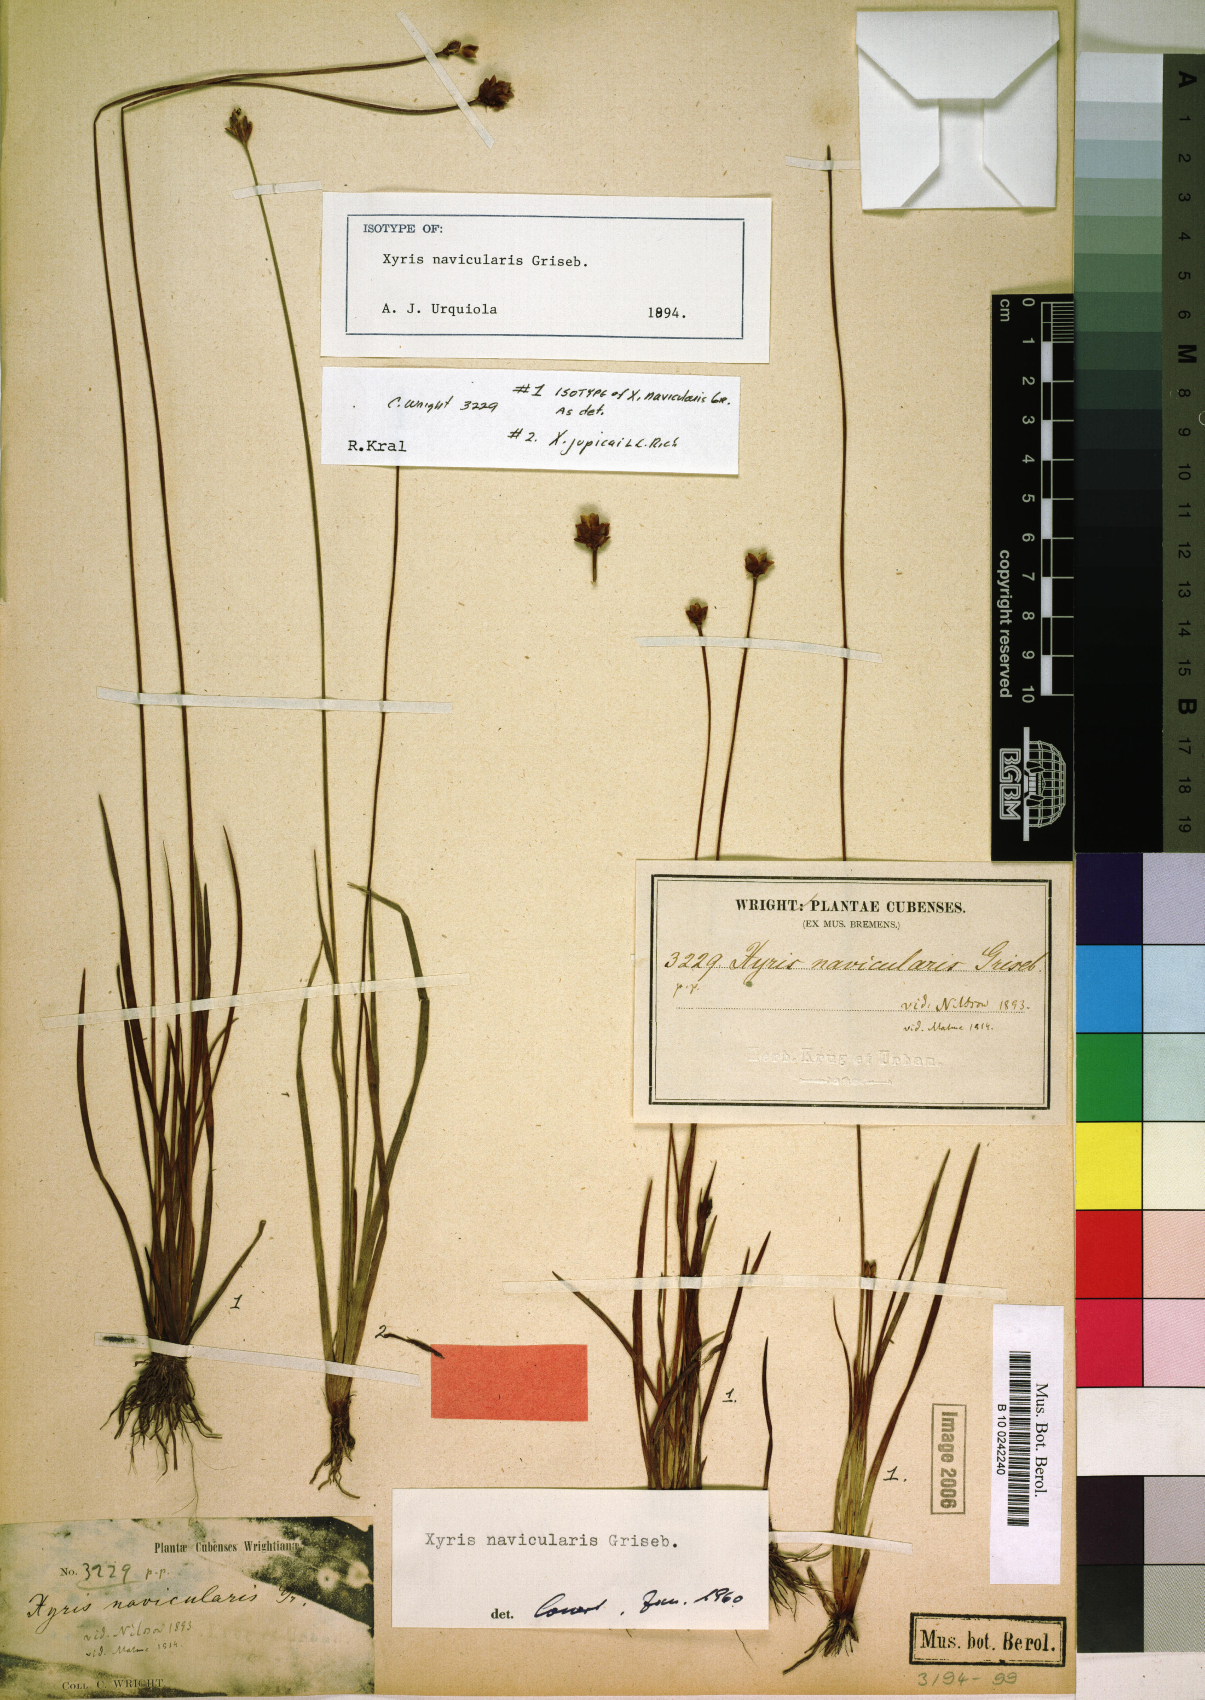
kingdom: Plantae
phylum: Tracheophyta
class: Liliopsida
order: Poales
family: Xyridaceae
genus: Xyris
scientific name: Xyris navicularis
